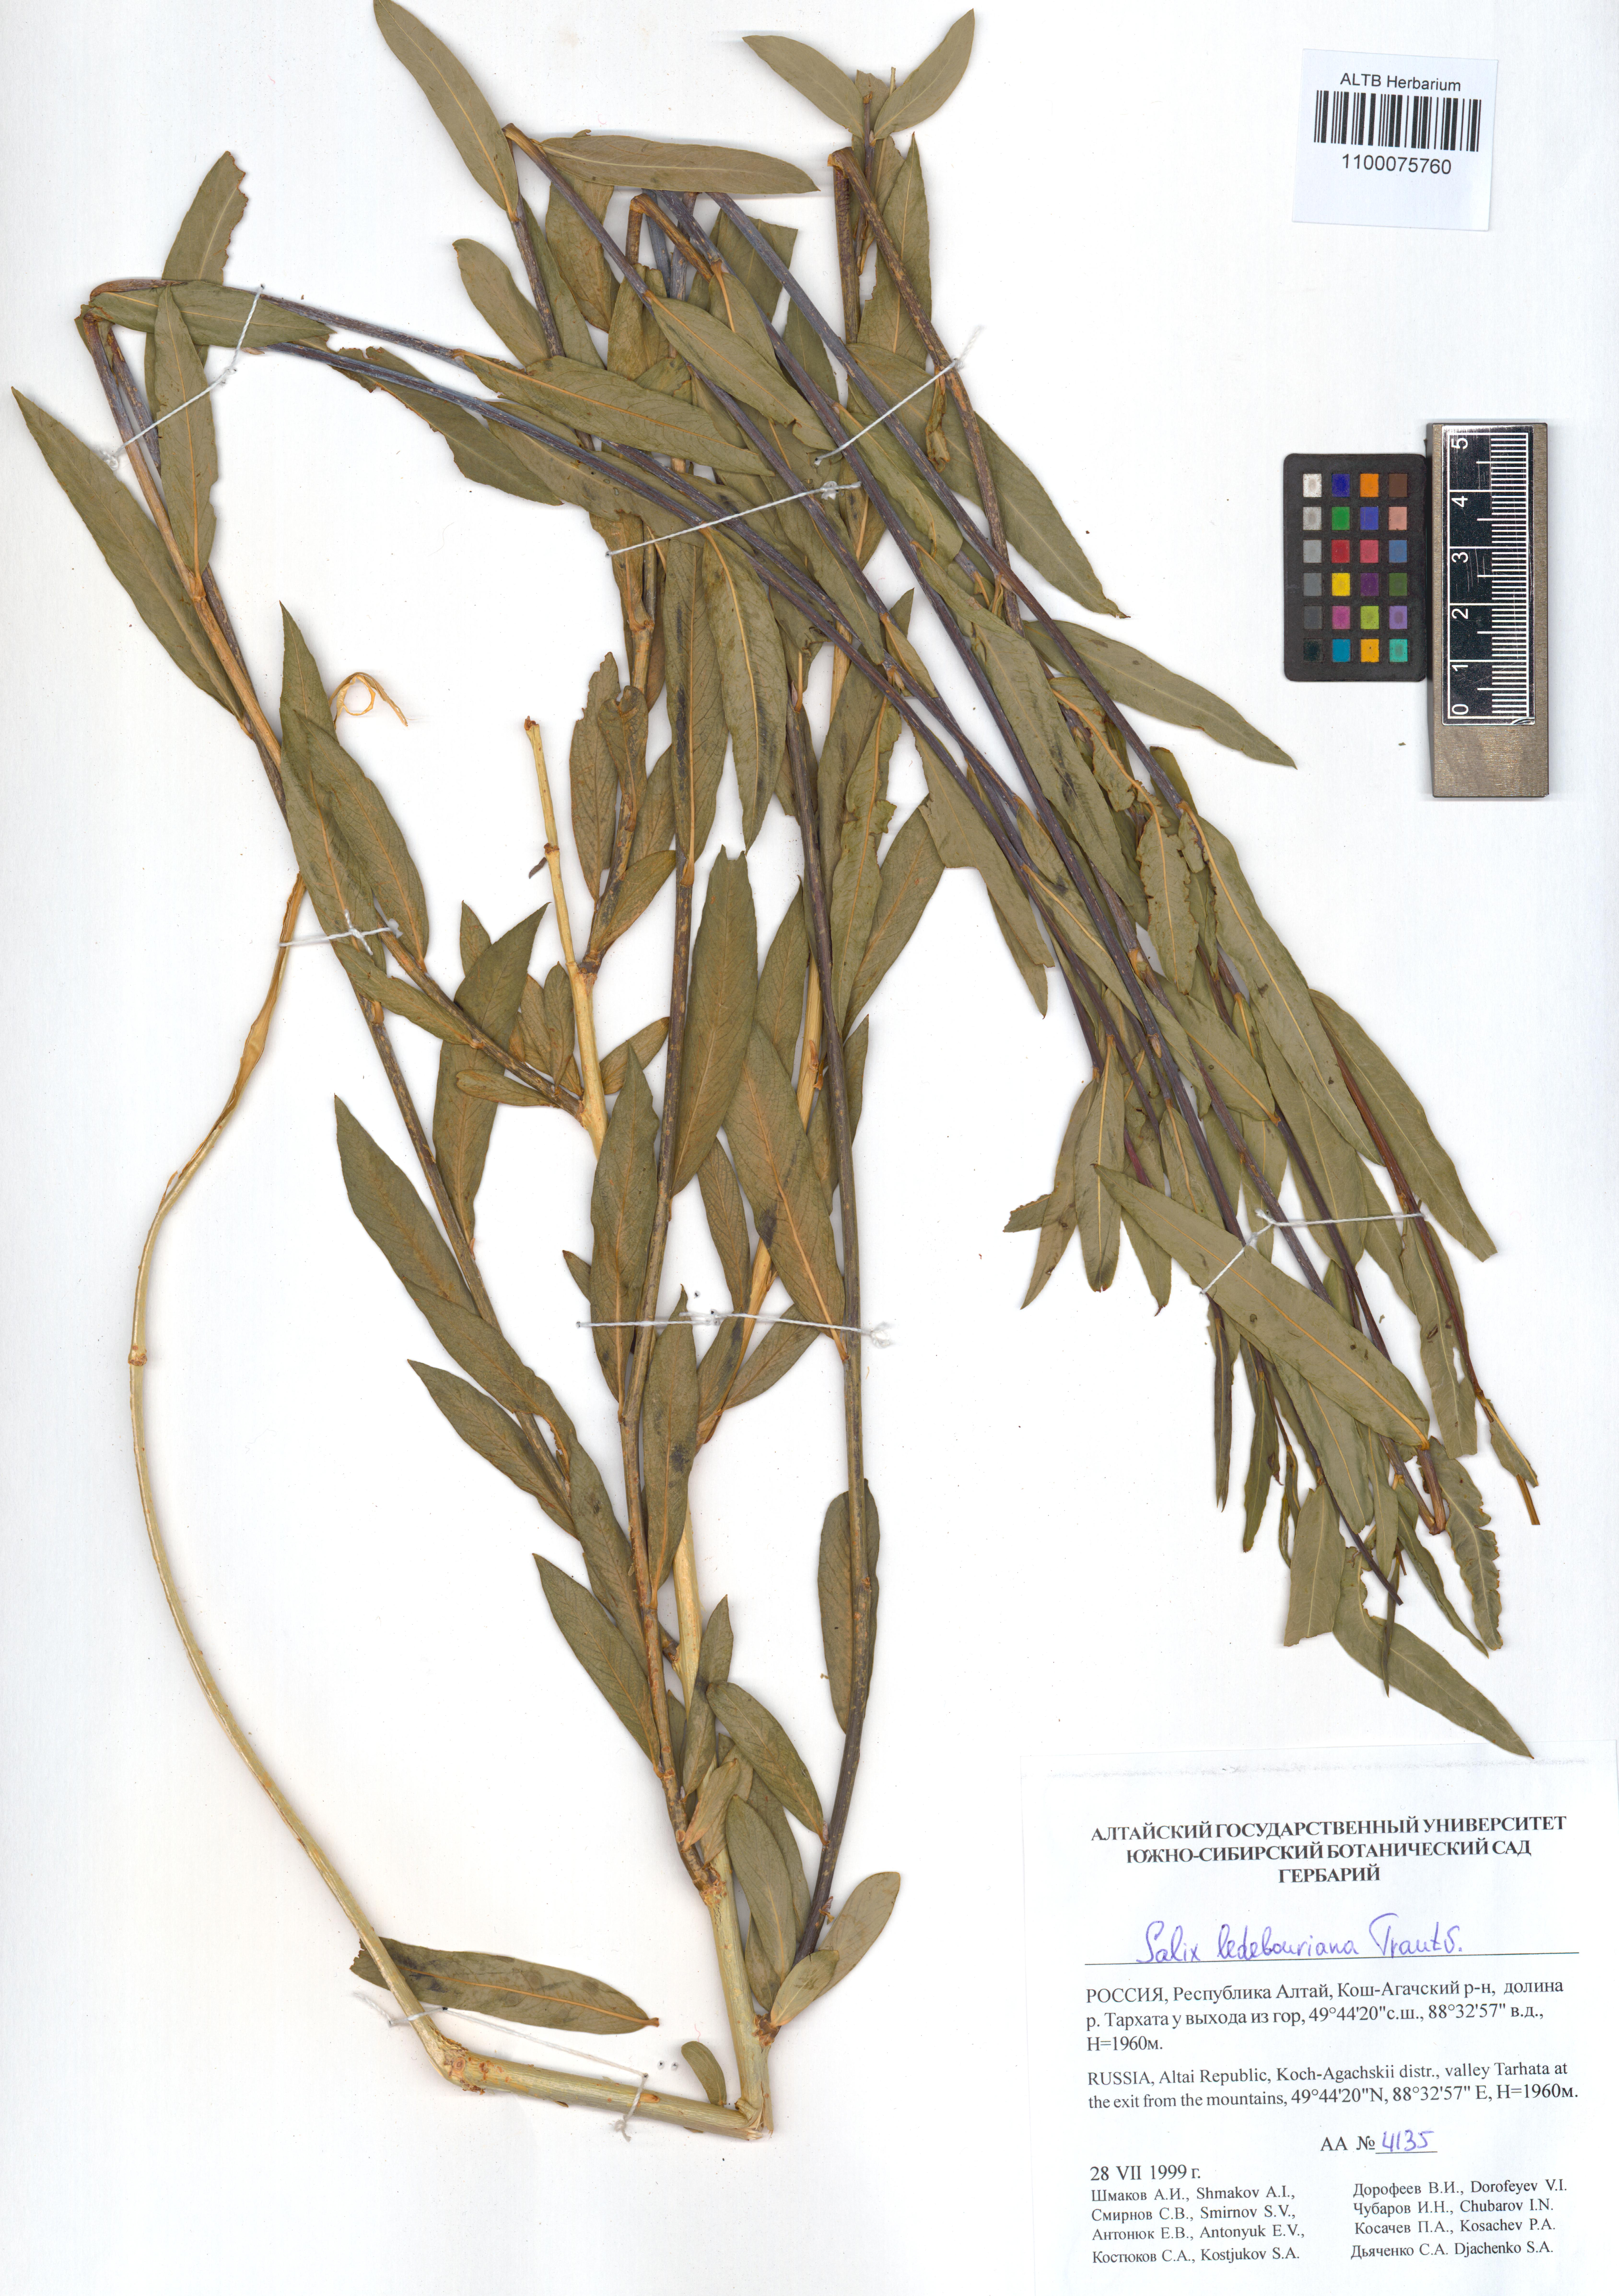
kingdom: Plantae
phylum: Tracheophyta
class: Magnoliopsida
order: Malpighiales
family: Salicaceae
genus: Salix
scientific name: Salix ledebouriana
